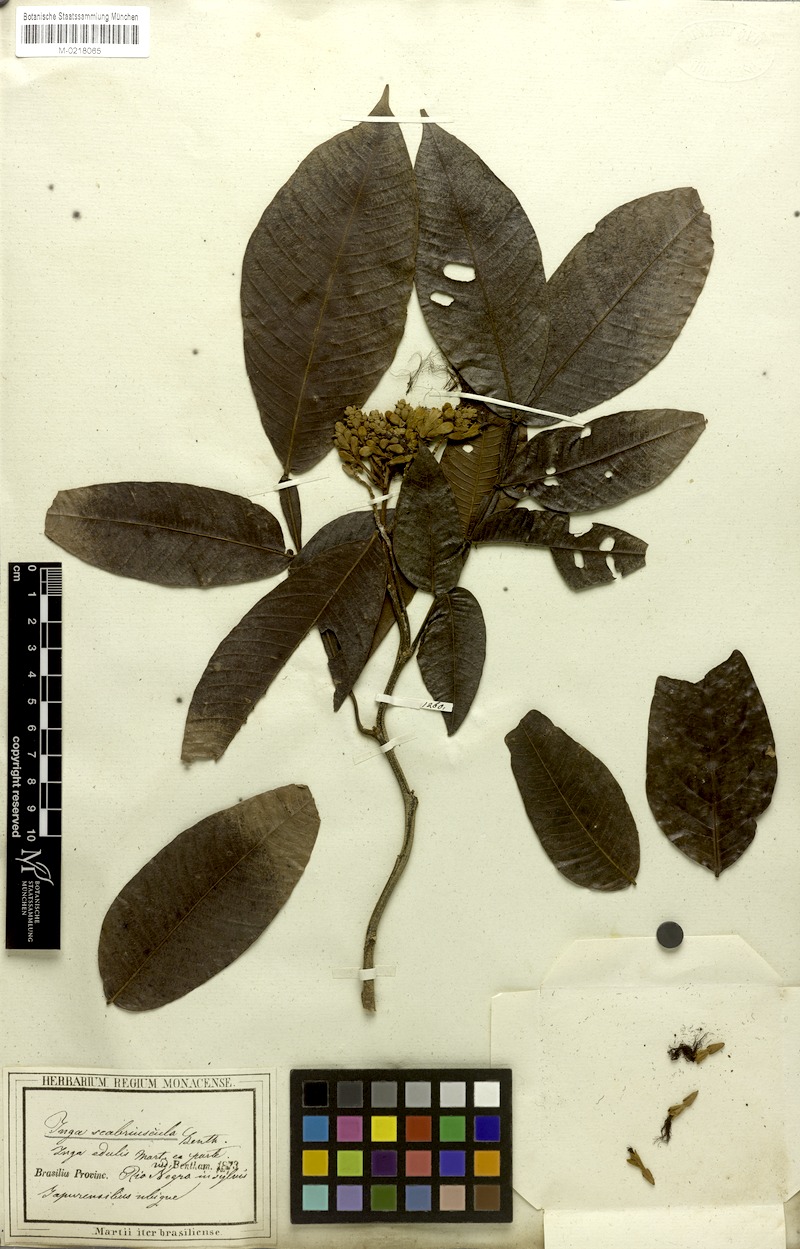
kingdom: Plantae
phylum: Tracheophyta
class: Magnoliopsida
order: Fabales
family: Fabaceae
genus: Inga
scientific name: Inga edulis
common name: Ice cream bean
